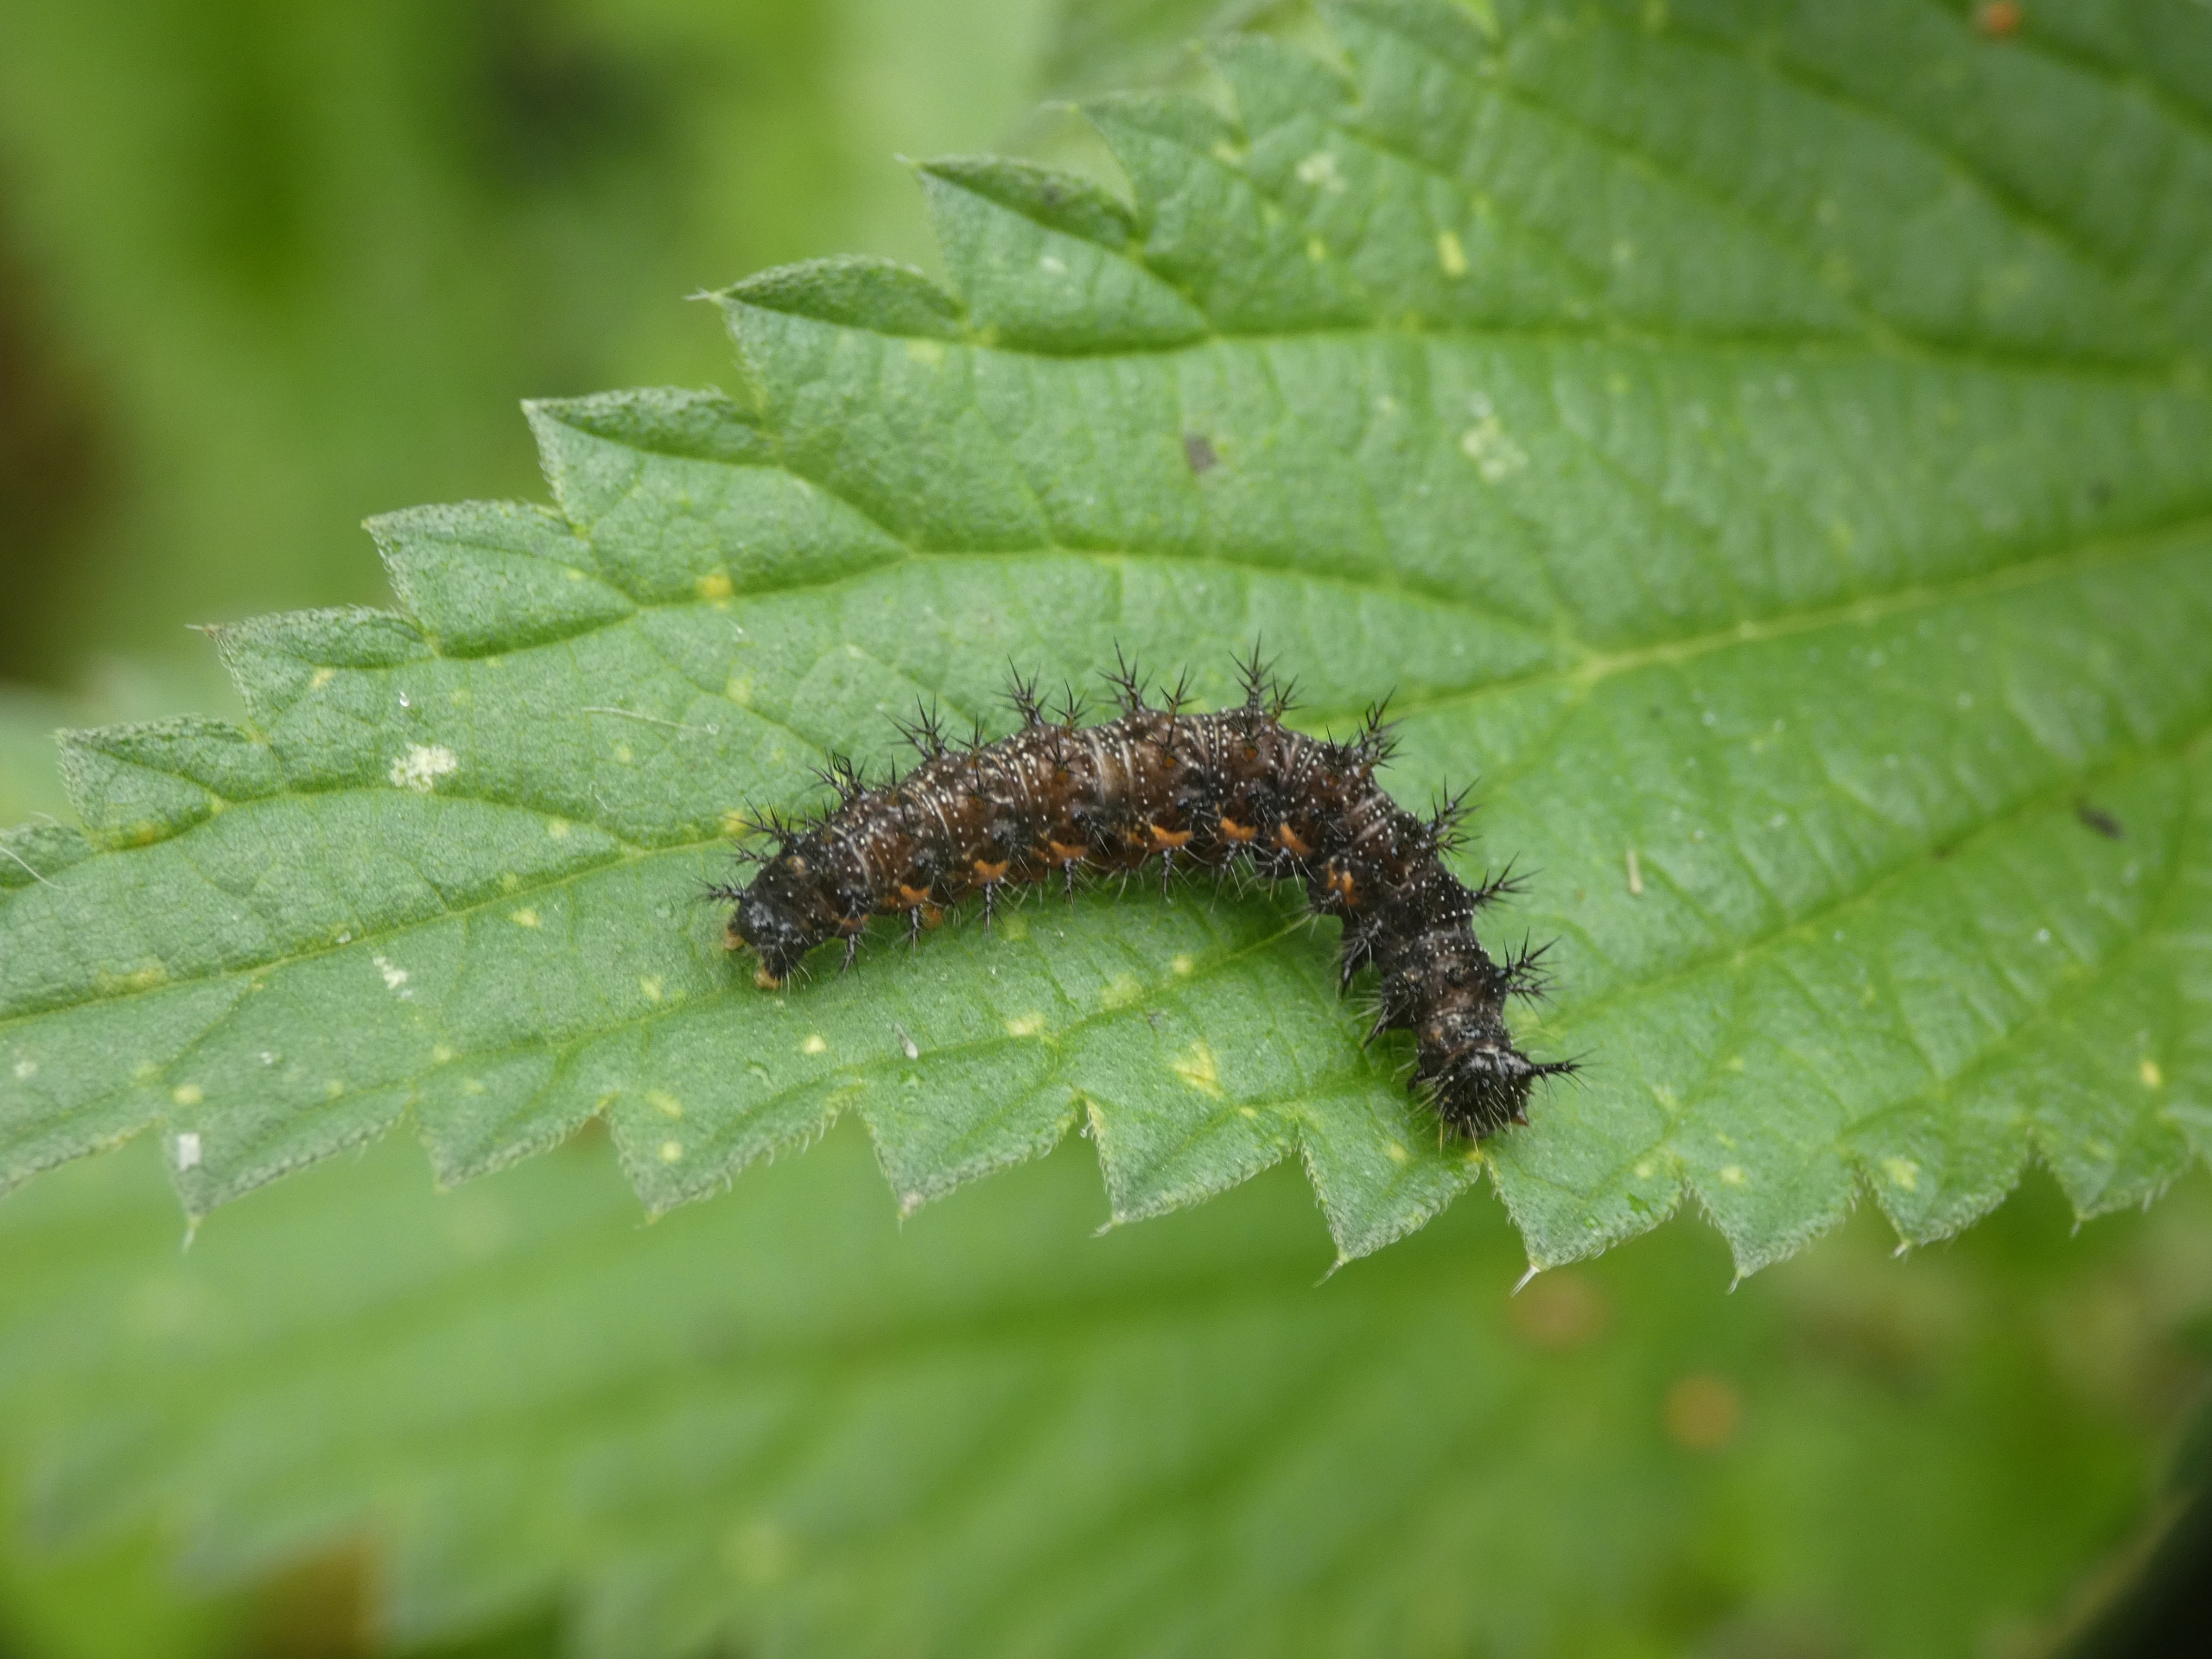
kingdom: Animalia
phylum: Arthropoda
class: Insecta
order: Lepidoptera
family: Nymphalidae
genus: Araschnia
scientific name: Araschnia levana
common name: Nældesommerfugl
